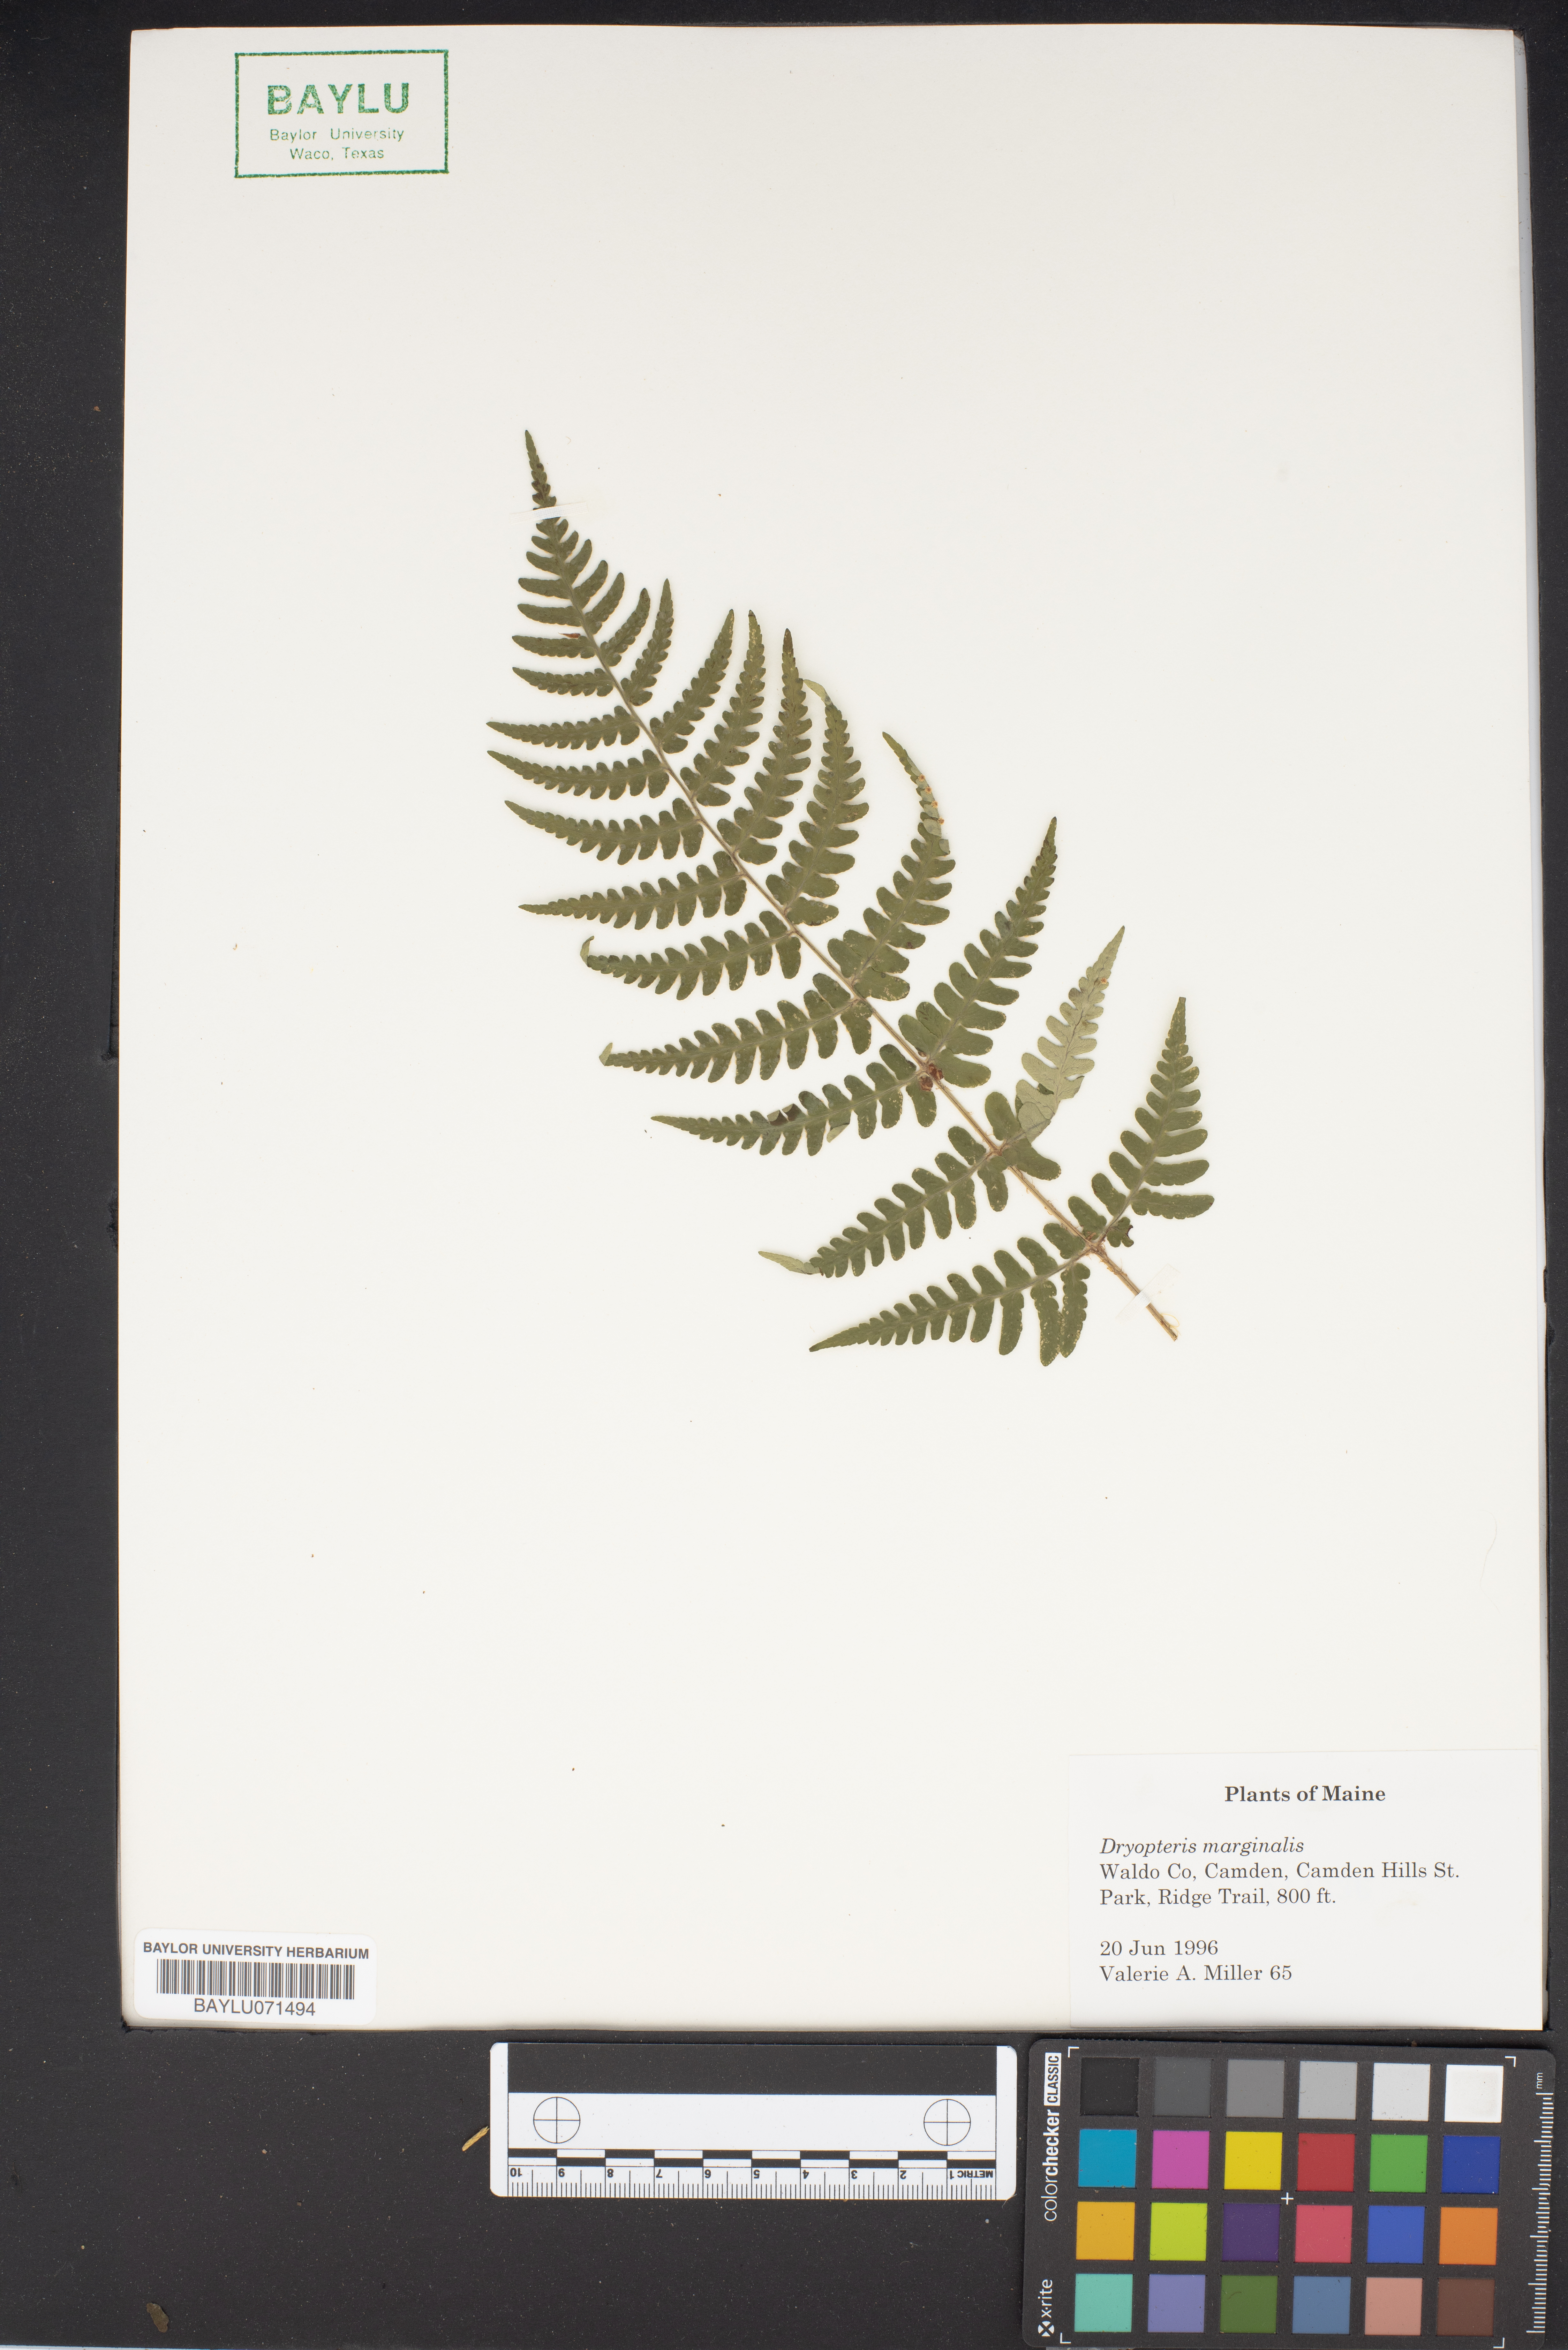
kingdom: Plantae
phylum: Tracheophyta
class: Polypodiopsida
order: Polypodiales
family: Dryopteridaceae
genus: Dryopteris
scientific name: Dryopteris marginalis
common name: Marginal wood fern
